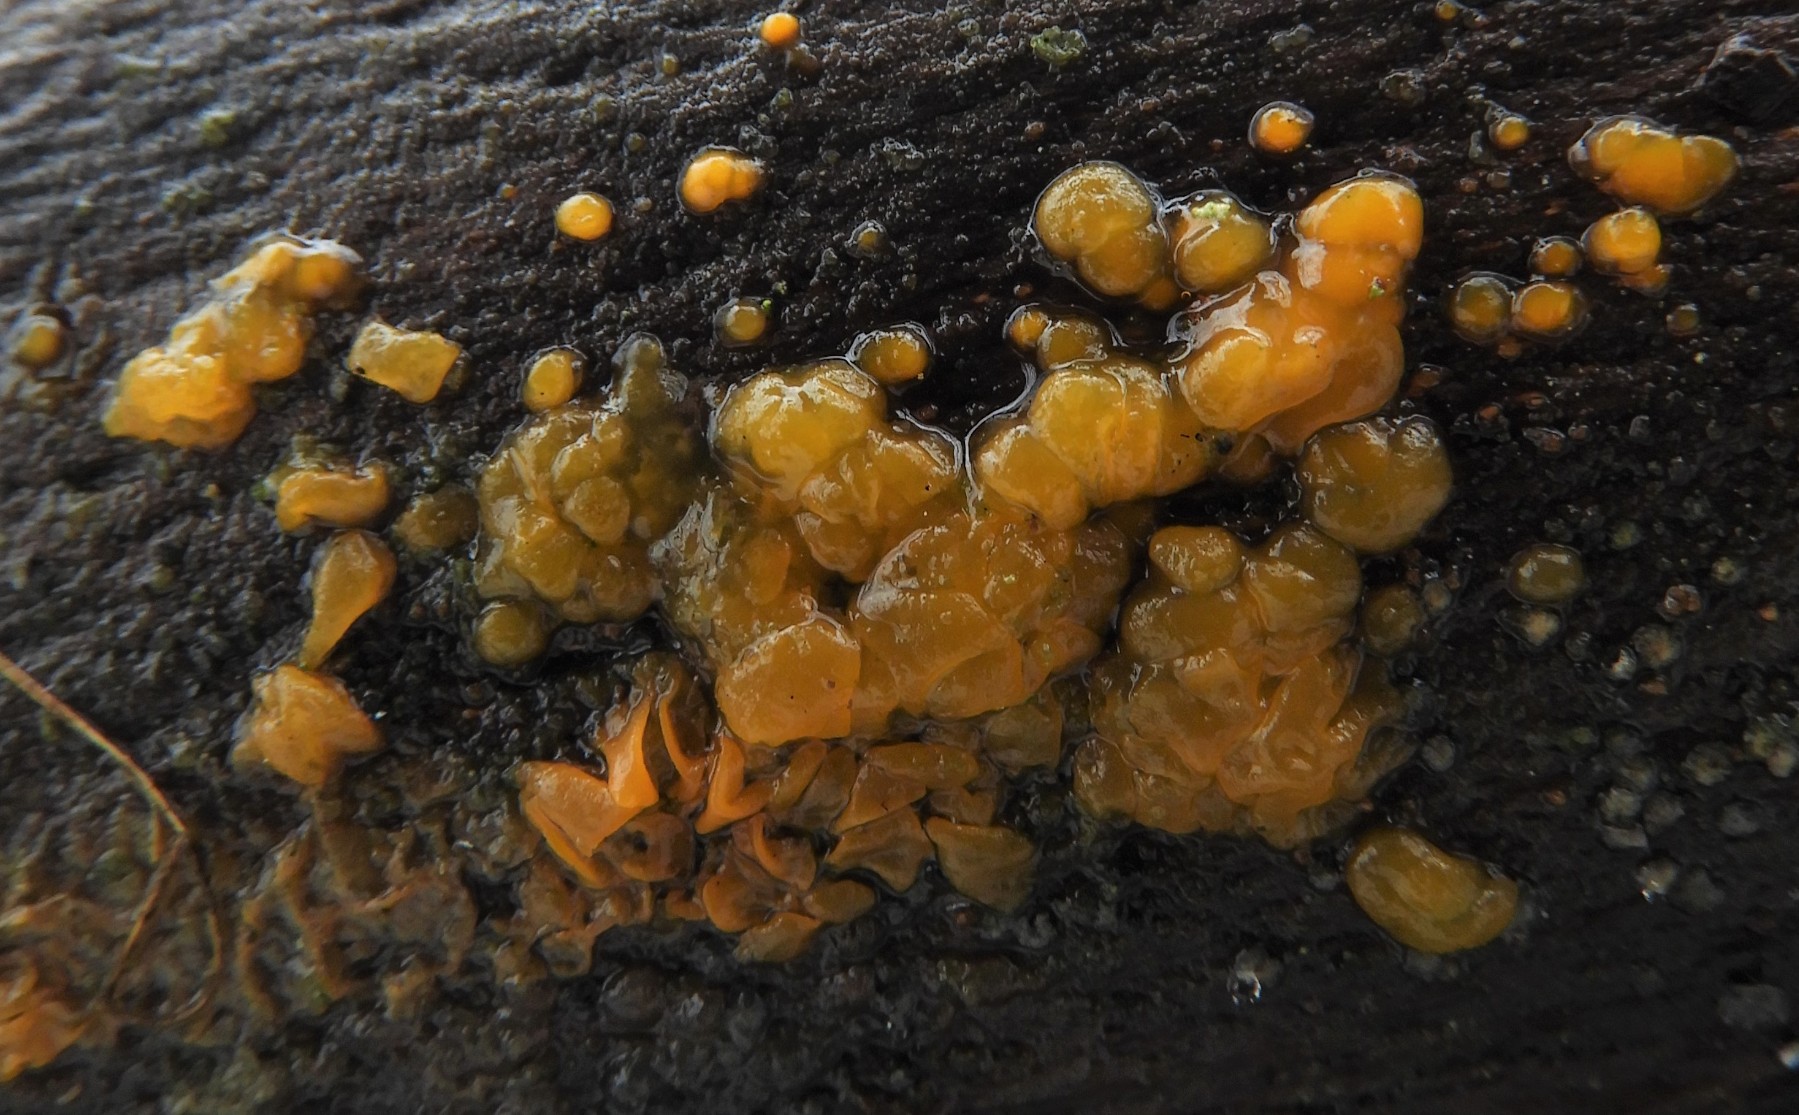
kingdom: Fungi
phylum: Basidiomycota
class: Dacrymycetes
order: Dacrymycetales
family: Dacrymycetaceae
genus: Dacrymyces
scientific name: Dacrymyces lacrymalis
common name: rynket tåresvamp
